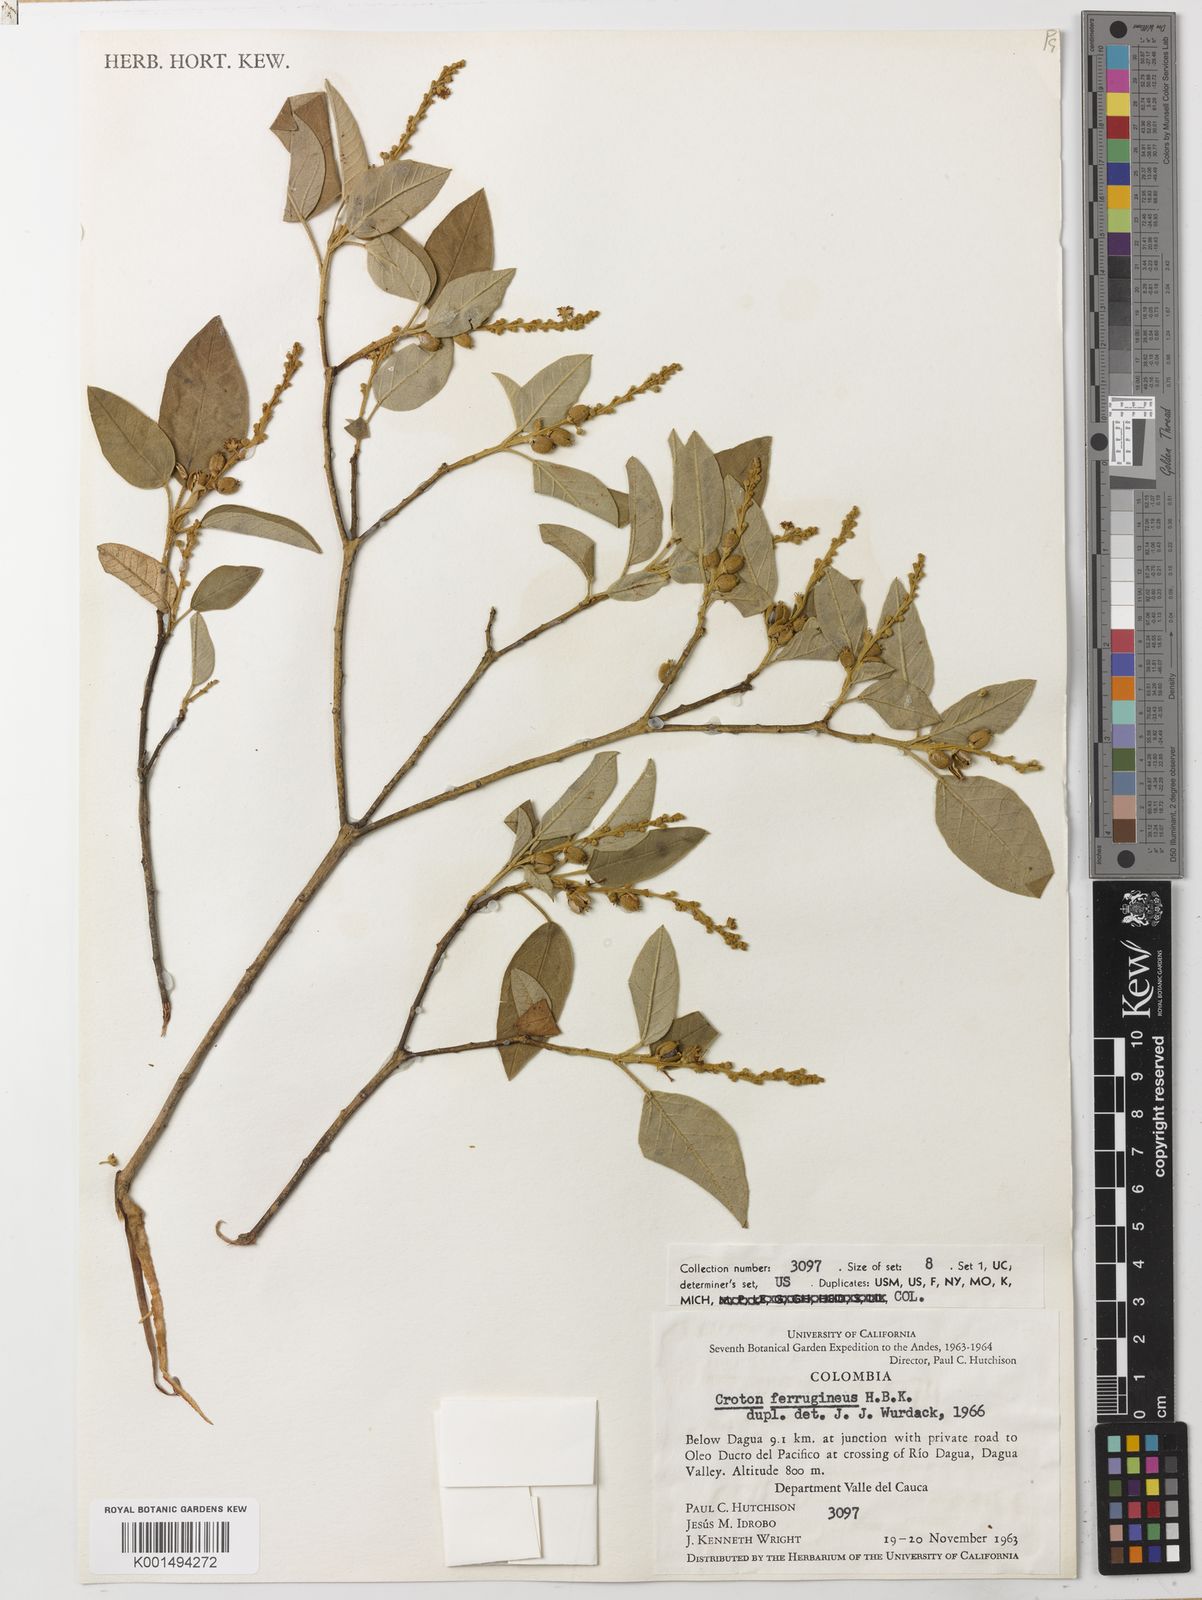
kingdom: Plantae
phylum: Tracheophyta
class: Magnoliopsida
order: Malpighiales
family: Euphorbiaceae
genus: Croton
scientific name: Croton ferrugineus
